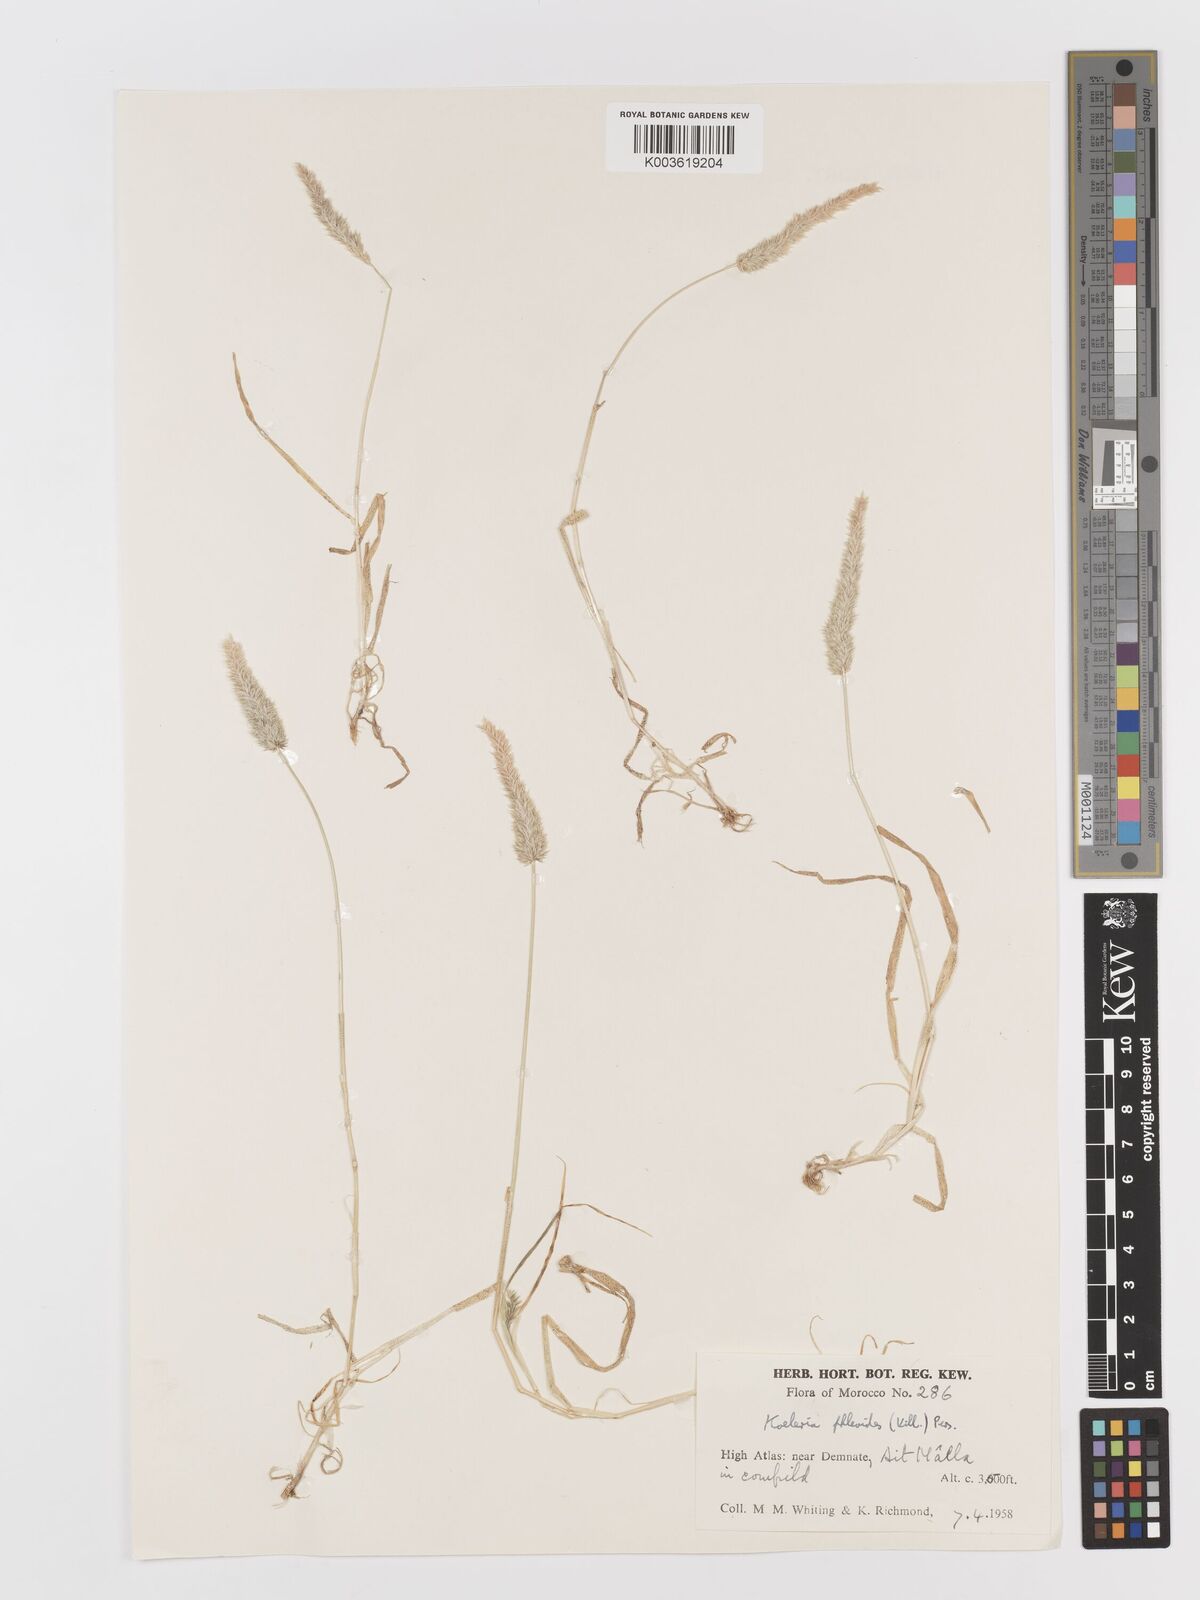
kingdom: Plantae
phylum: Tracheophyta
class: Liliopsida
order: Poales
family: Poaceae
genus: Rostraria
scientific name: Rostraria cristata
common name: Mediterranean hair-grass
